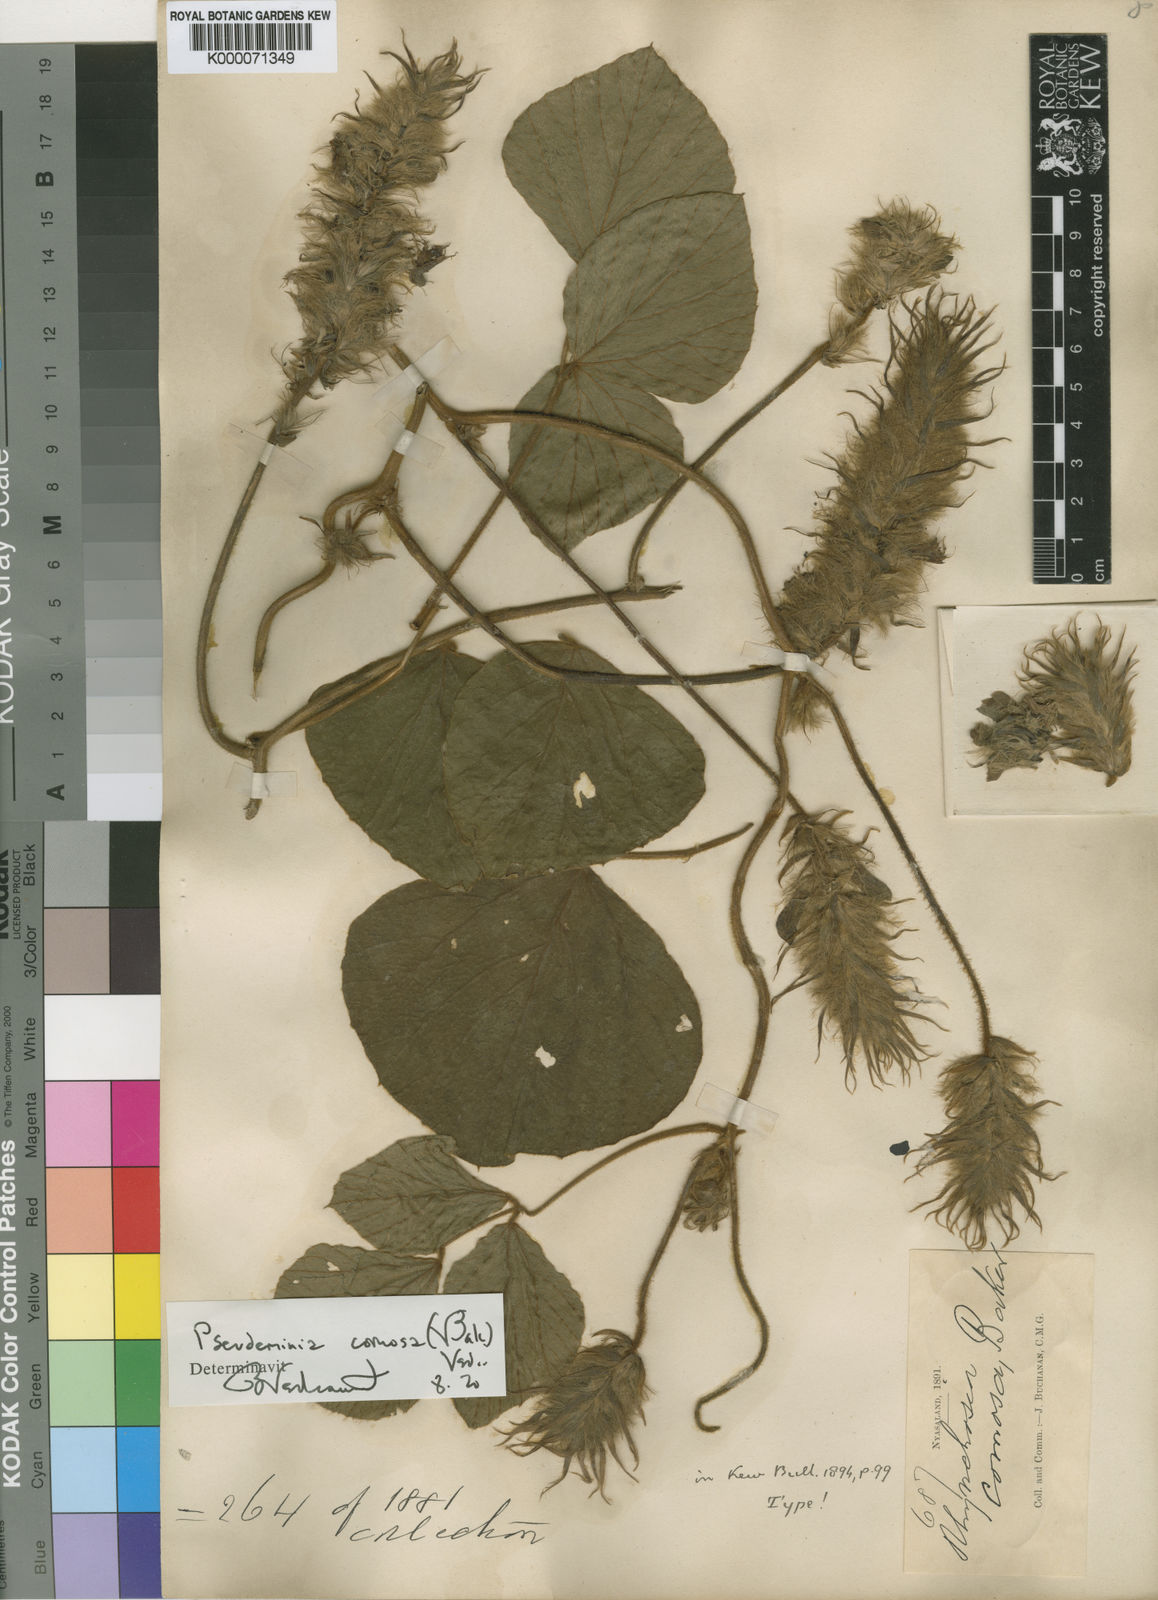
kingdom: Plantae
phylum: Tracheophyta
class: Magnoliopsida
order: Fabales
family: Fabaceae
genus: Pseudeminia
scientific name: Pseudeminia comosa
